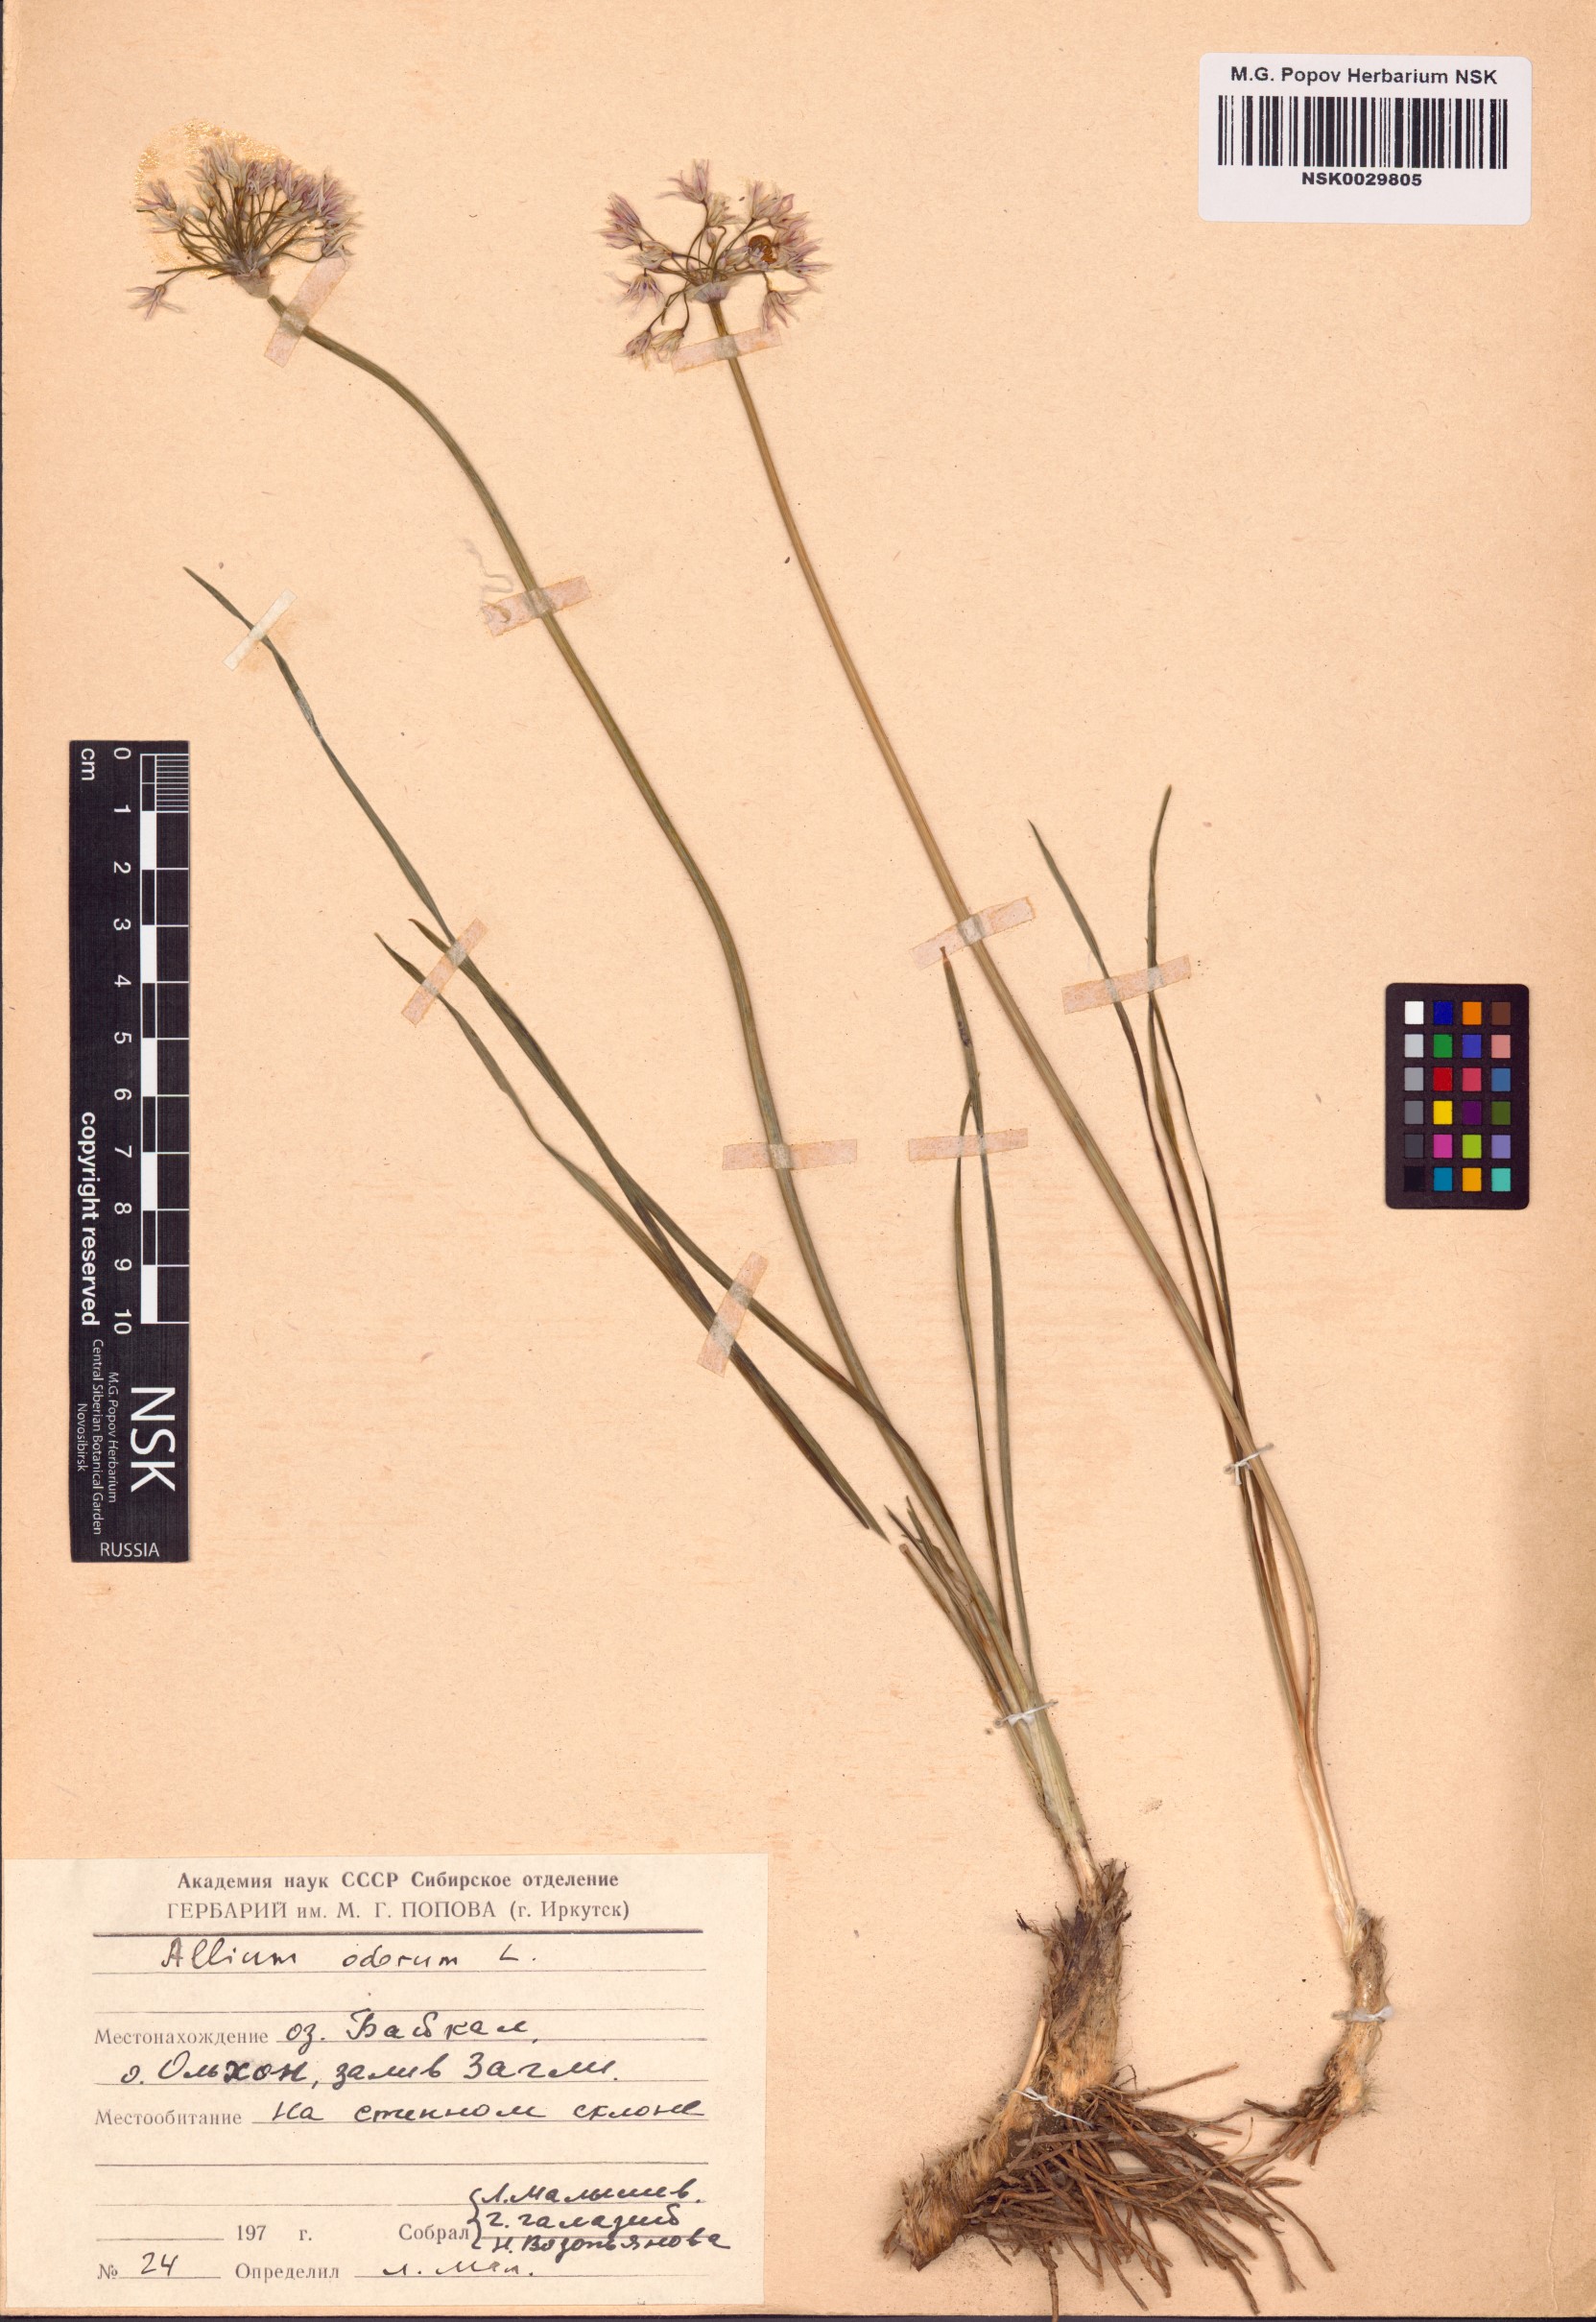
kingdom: Plantae
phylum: Tracheophyta
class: Liliopsida
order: Asparagales
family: Amaryllidaceae
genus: Allium
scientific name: Allium ramosum
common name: Fragrant garlic
